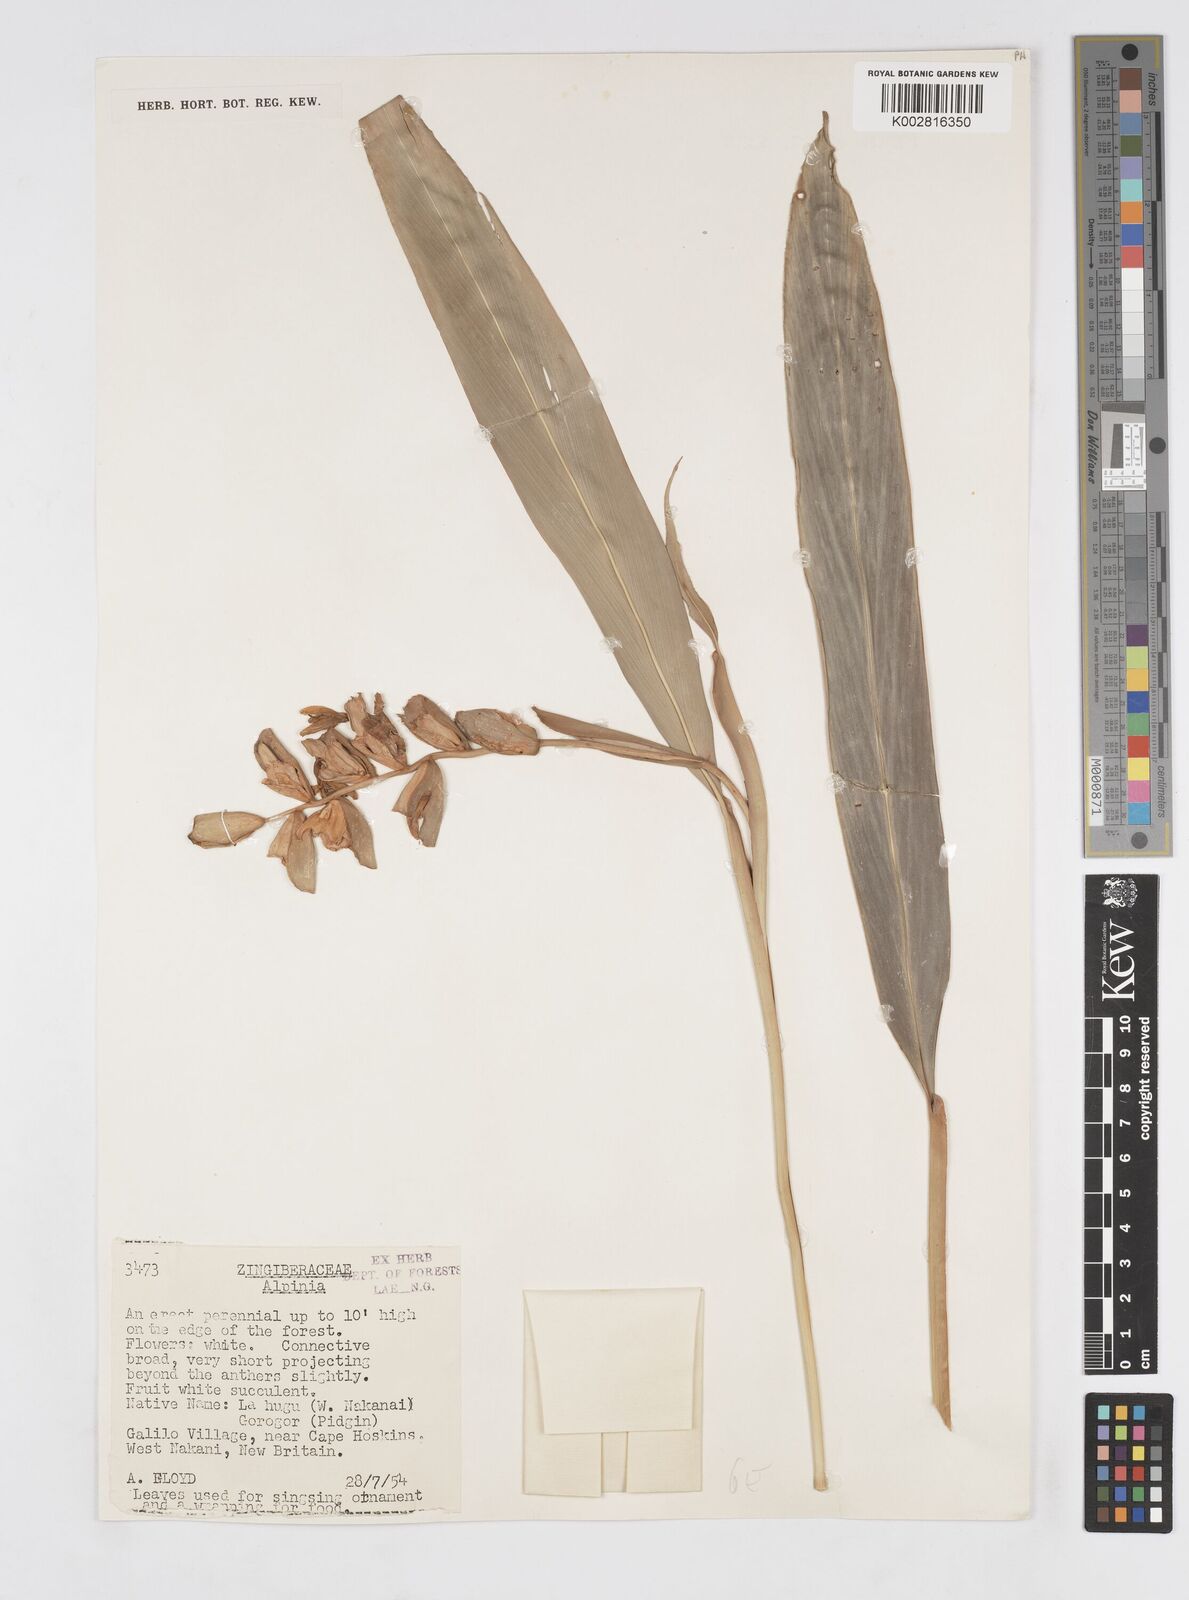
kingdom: Plantae
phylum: Tracheophyta
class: Liliopsida
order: Zingiberales
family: Zingiberaceae
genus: Alpinia
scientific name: Alpinia oceanica
